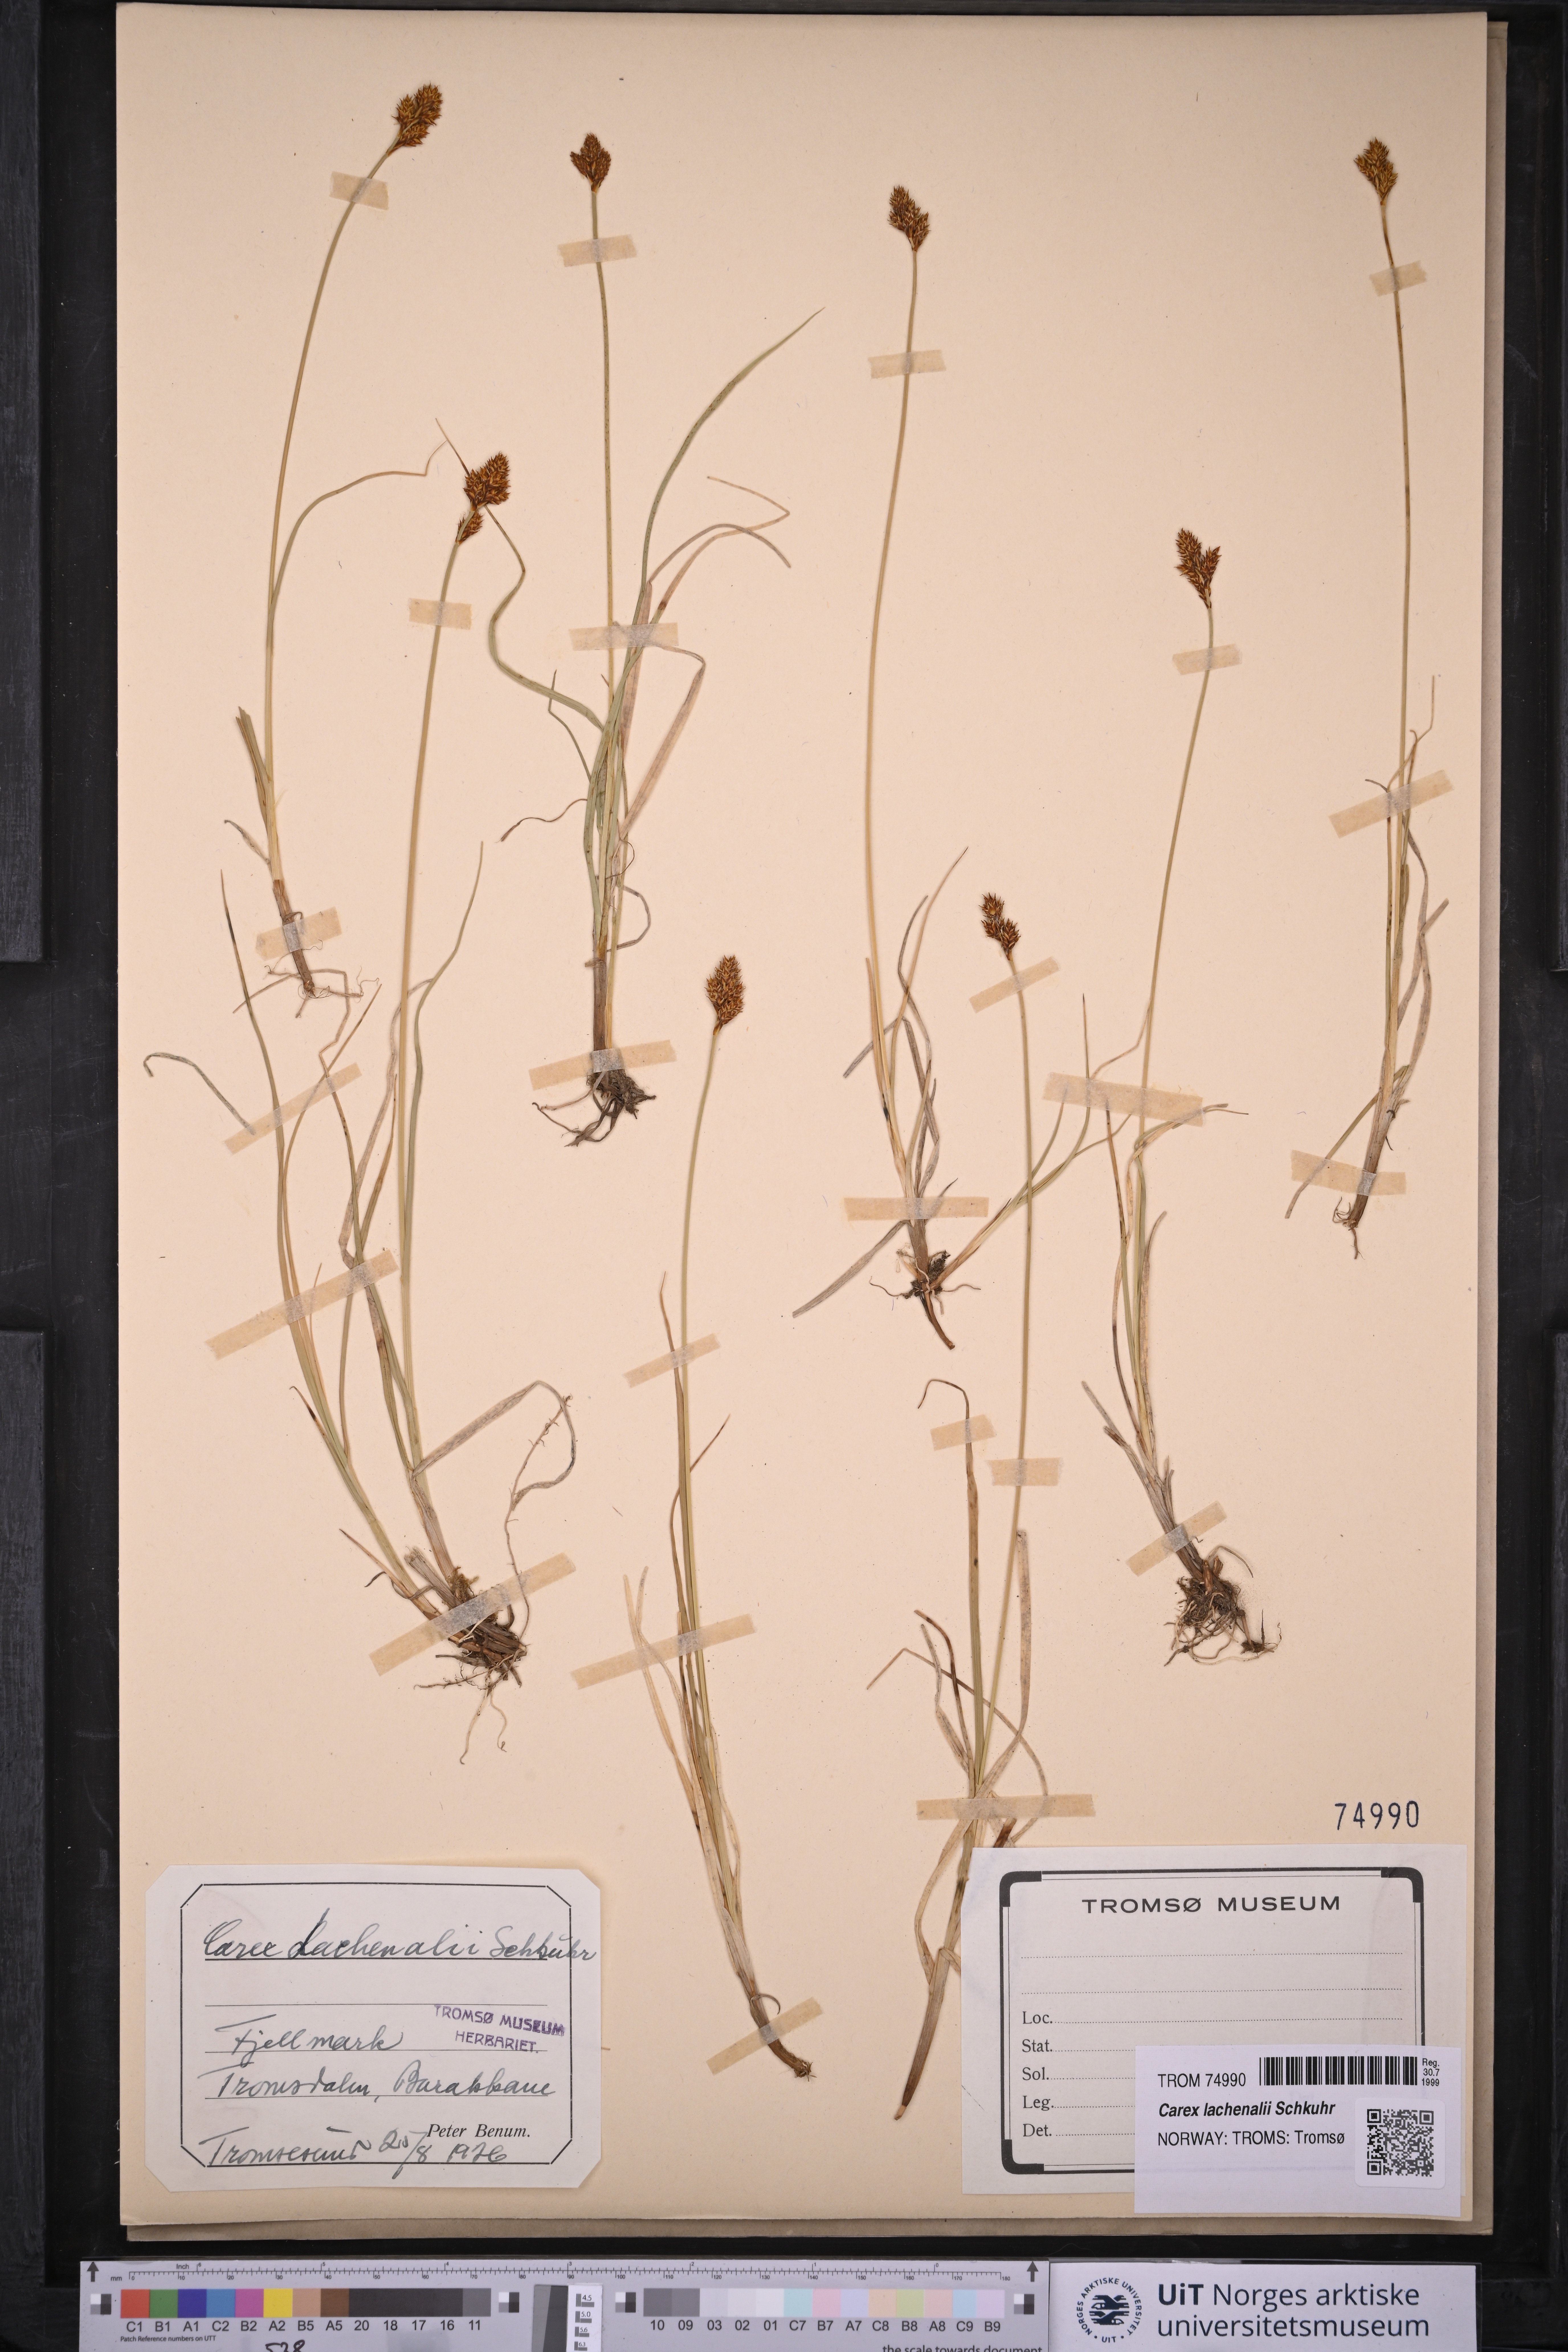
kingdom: Plantae
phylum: Tracheophyta
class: Liliopsida
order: Poales
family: Cyperaceae
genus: Carex
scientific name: Carex lachenalii
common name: Hare's-foot sedge
